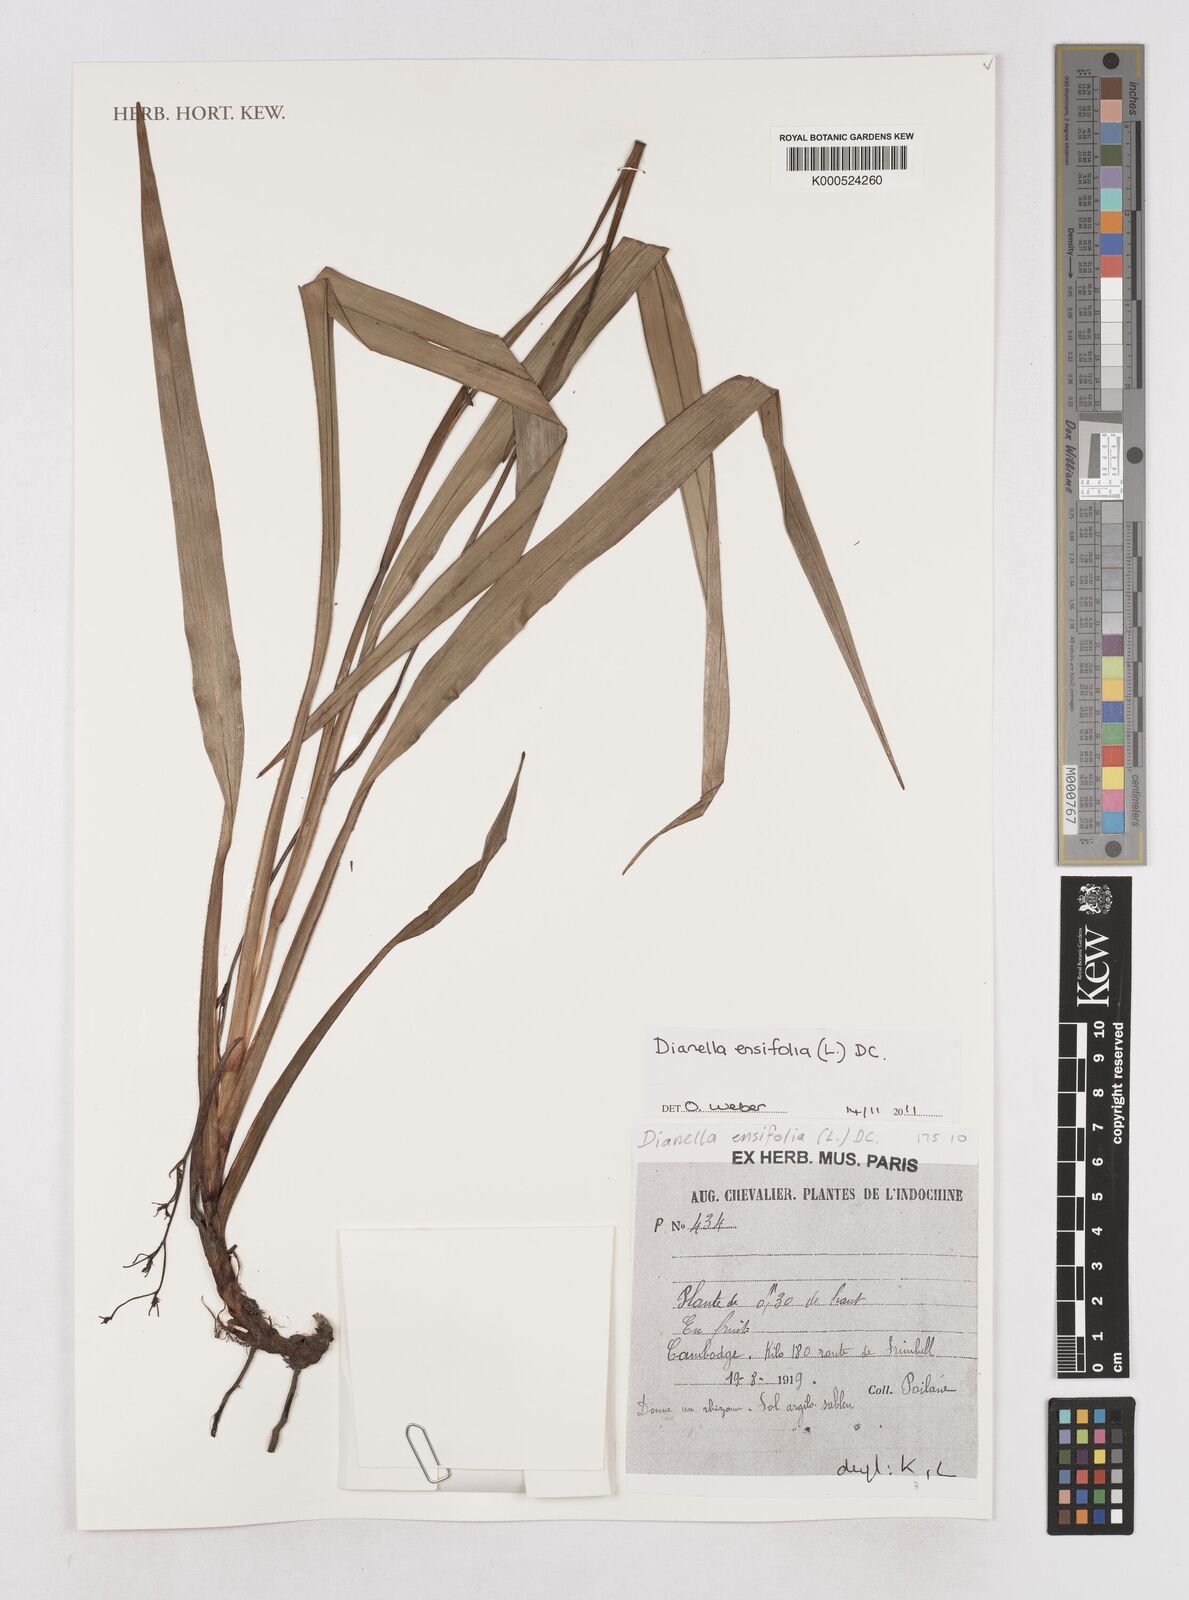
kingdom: Plantae
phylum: Tracheophyta
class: Liliopsida
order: Asparagales
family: Asphodelaceae
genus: Dianella
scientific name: Dianella
